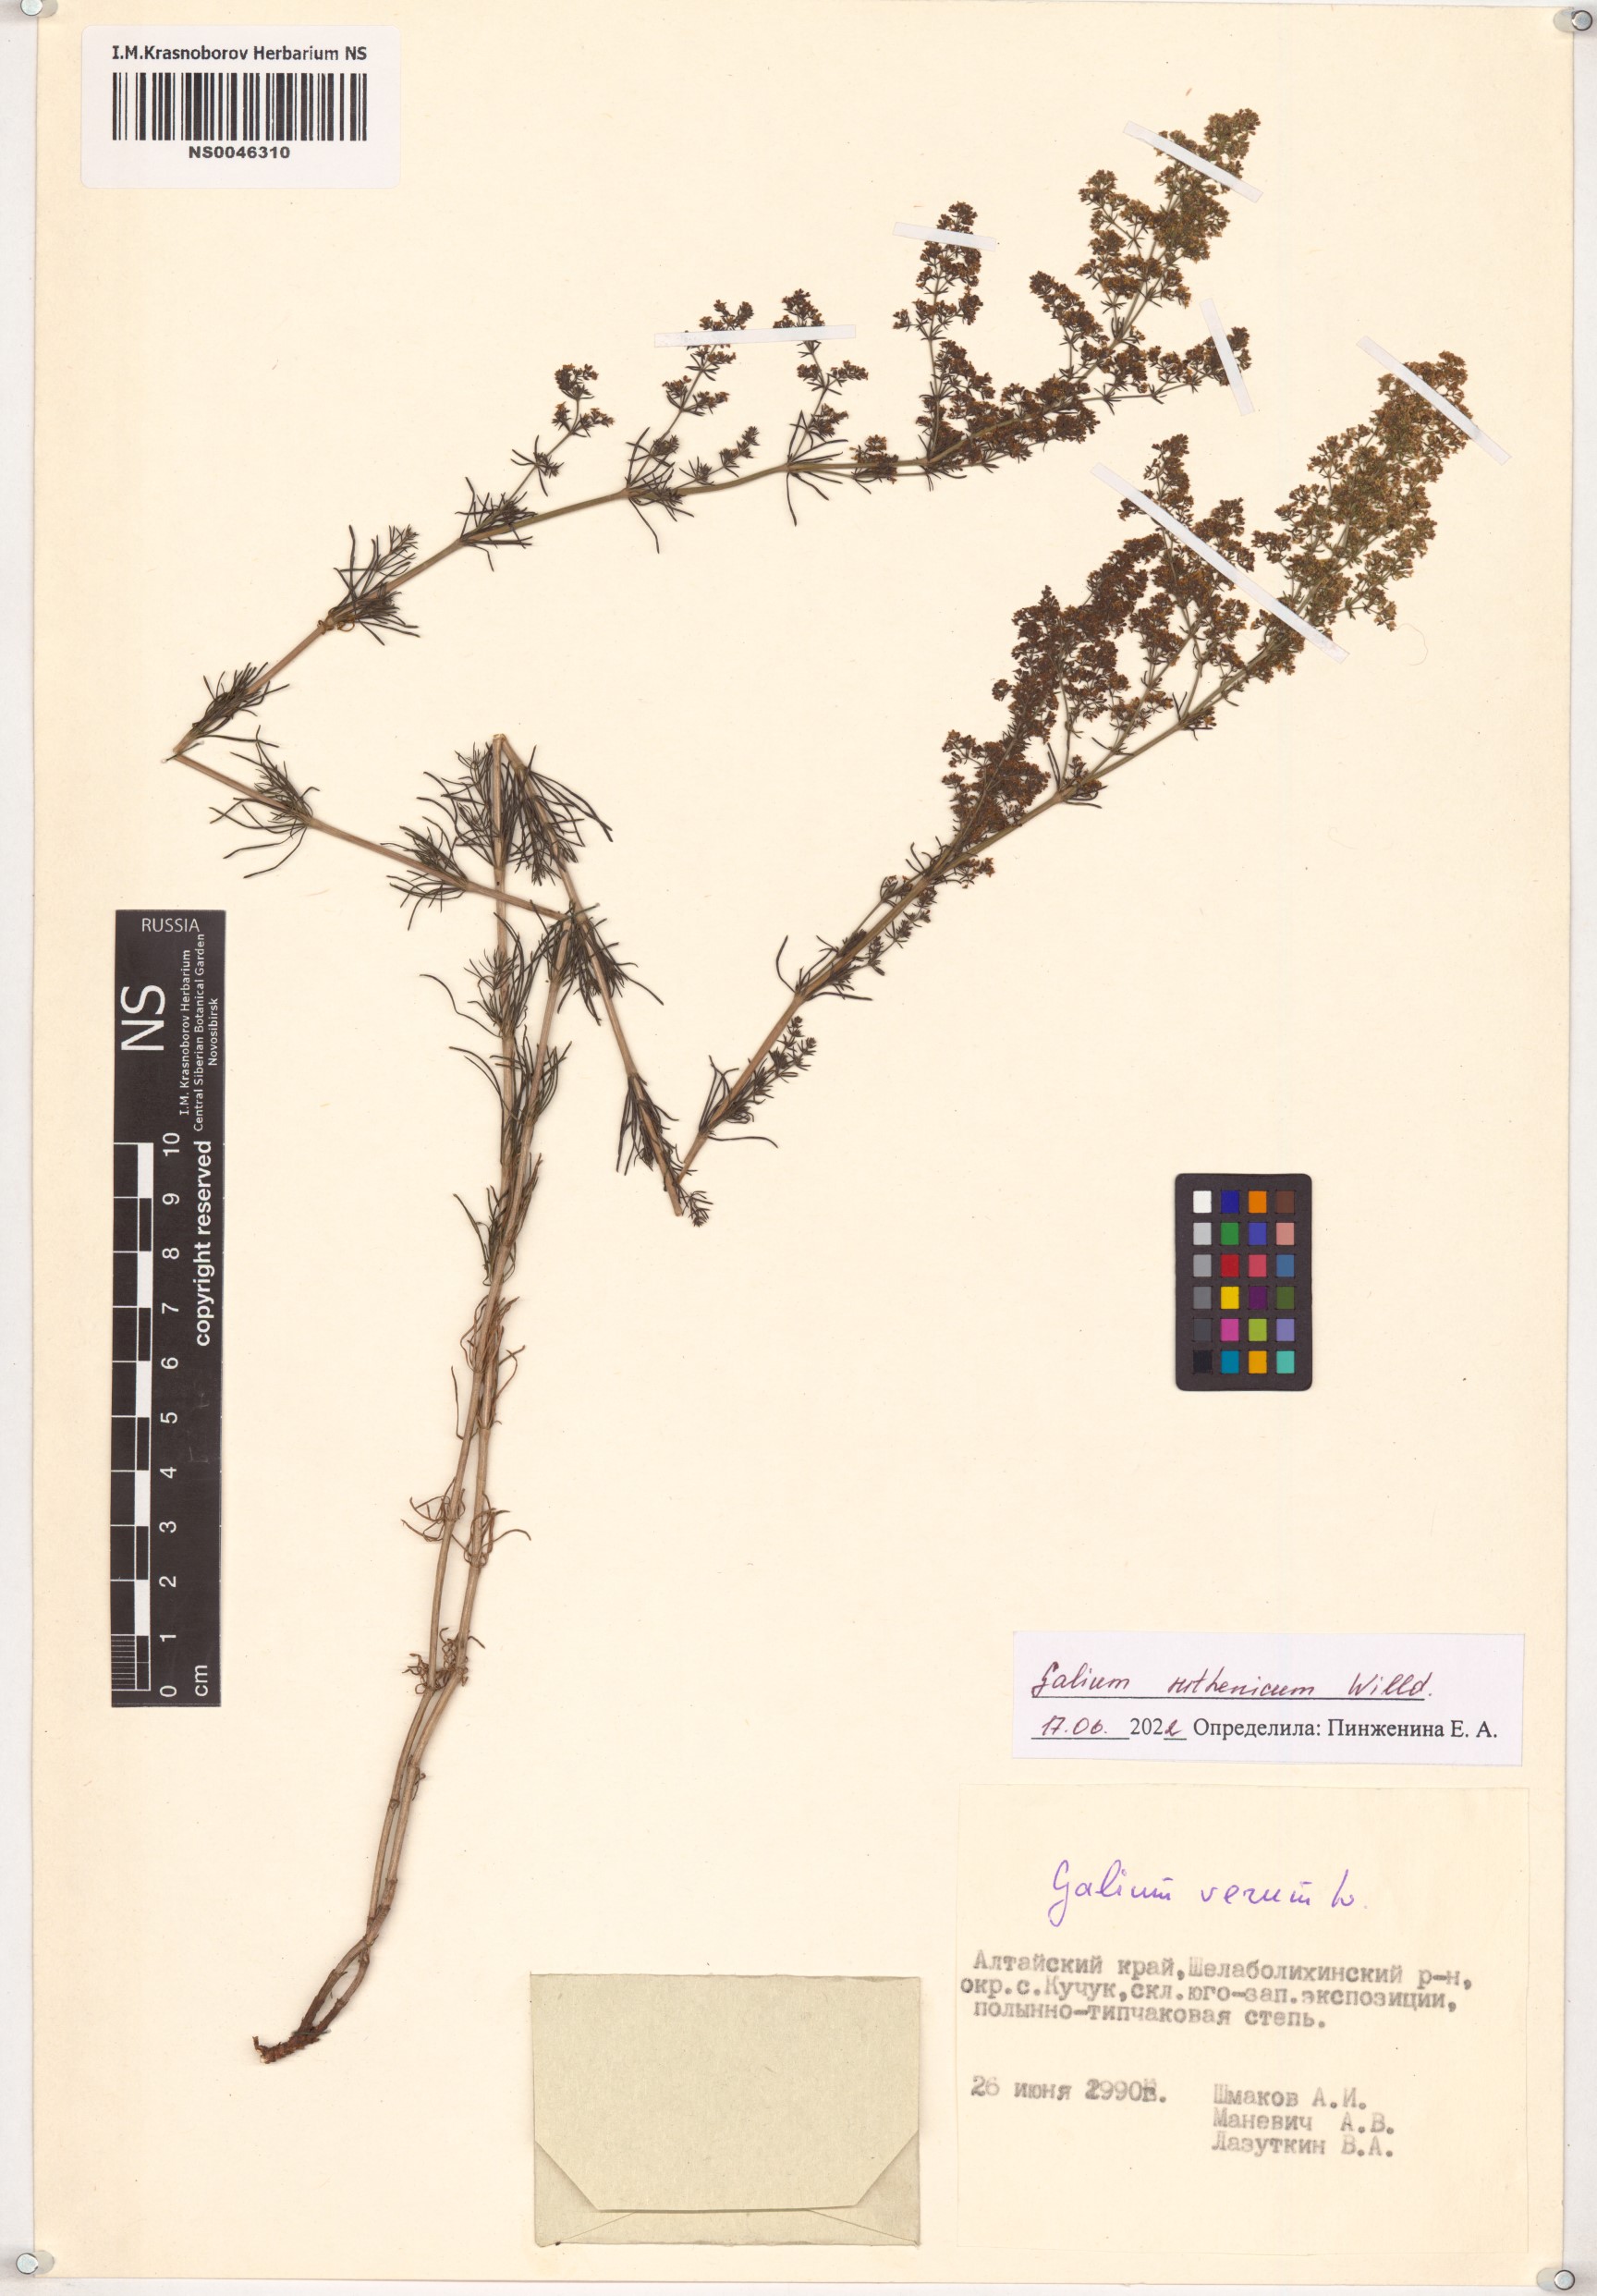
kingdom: Plantae
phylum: Tracheophyta
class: Magnoliopsida
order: Gentianales
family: Rubiaceae
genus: Galium
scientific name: Galium verum
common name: Lady's bedstraw
